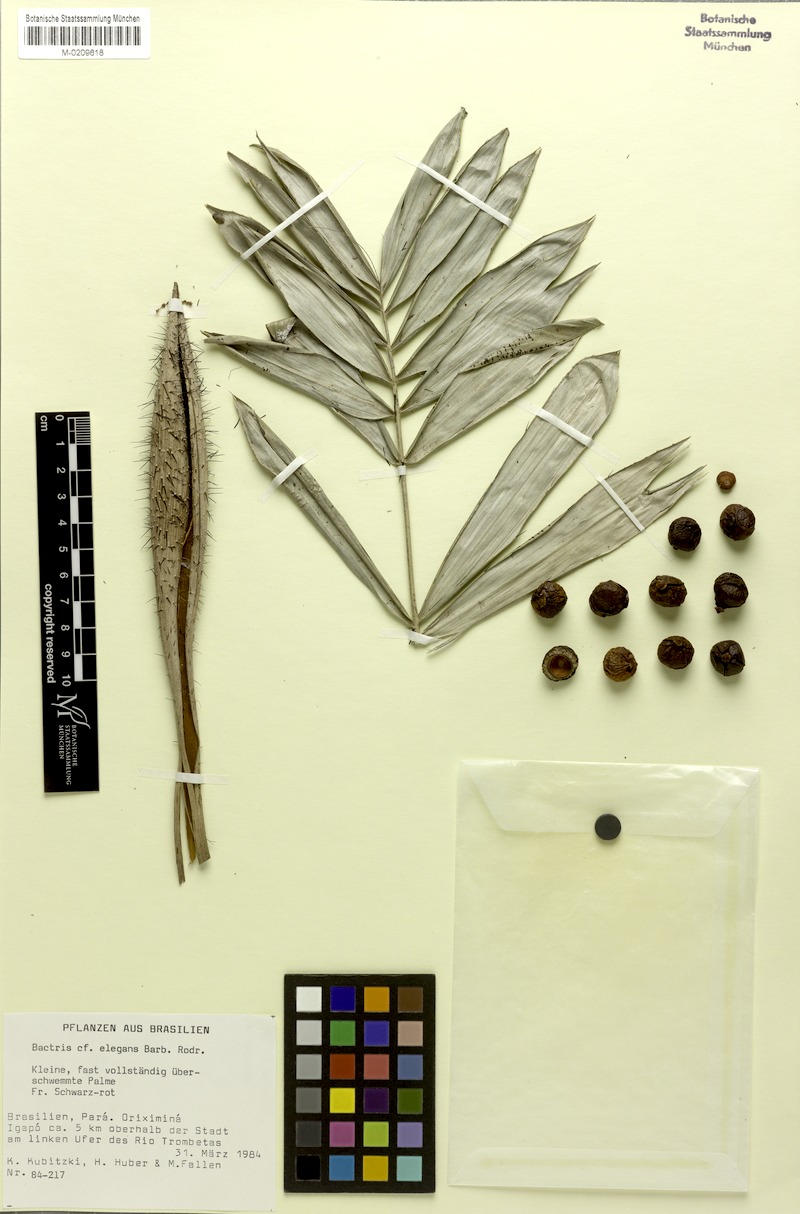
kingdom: Plantae
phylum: Tracheophyta
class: Liliopsida
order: Arecales
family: Arecaceae
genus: Bactris
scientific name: Bactris elegans
